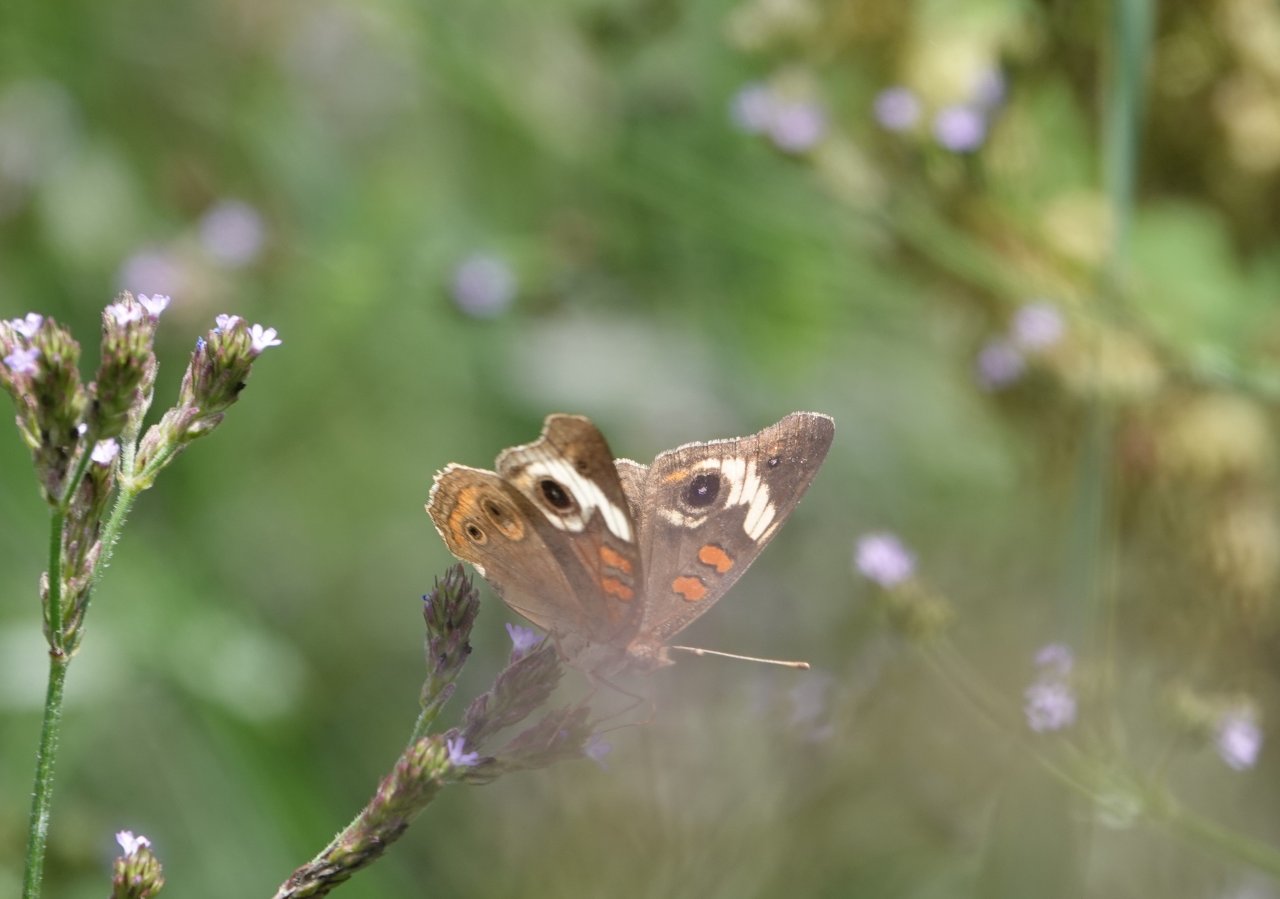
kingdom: Animalia
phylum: Arthropoda
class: Insecta
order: Lepidoptera
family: Nymphalidae
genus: Junonia
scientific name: Junonia coenia
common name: Common Buckeye
